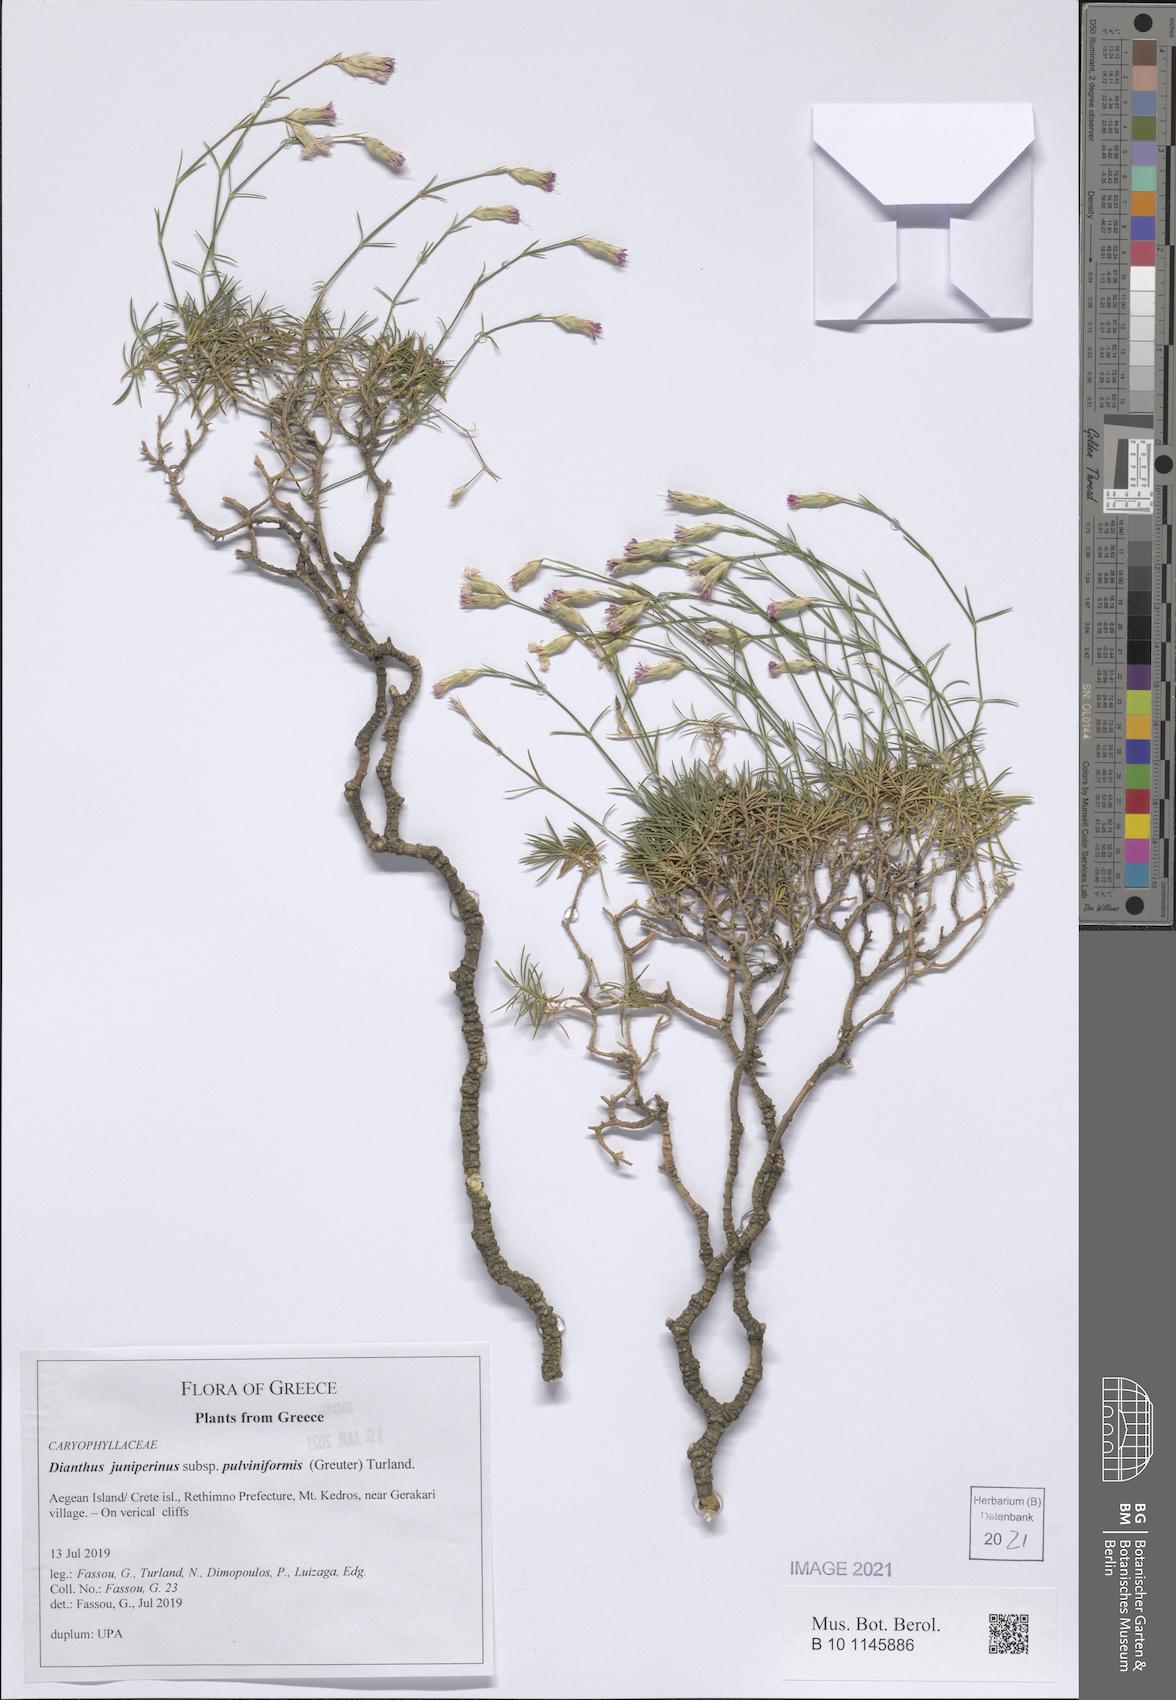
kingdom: Plantae
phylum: Tracheophyta
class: Magnoliopsida
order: Caryophyllales
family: Caryophyllaceae
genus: Dianthus
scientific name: Dianthus juniperinus
